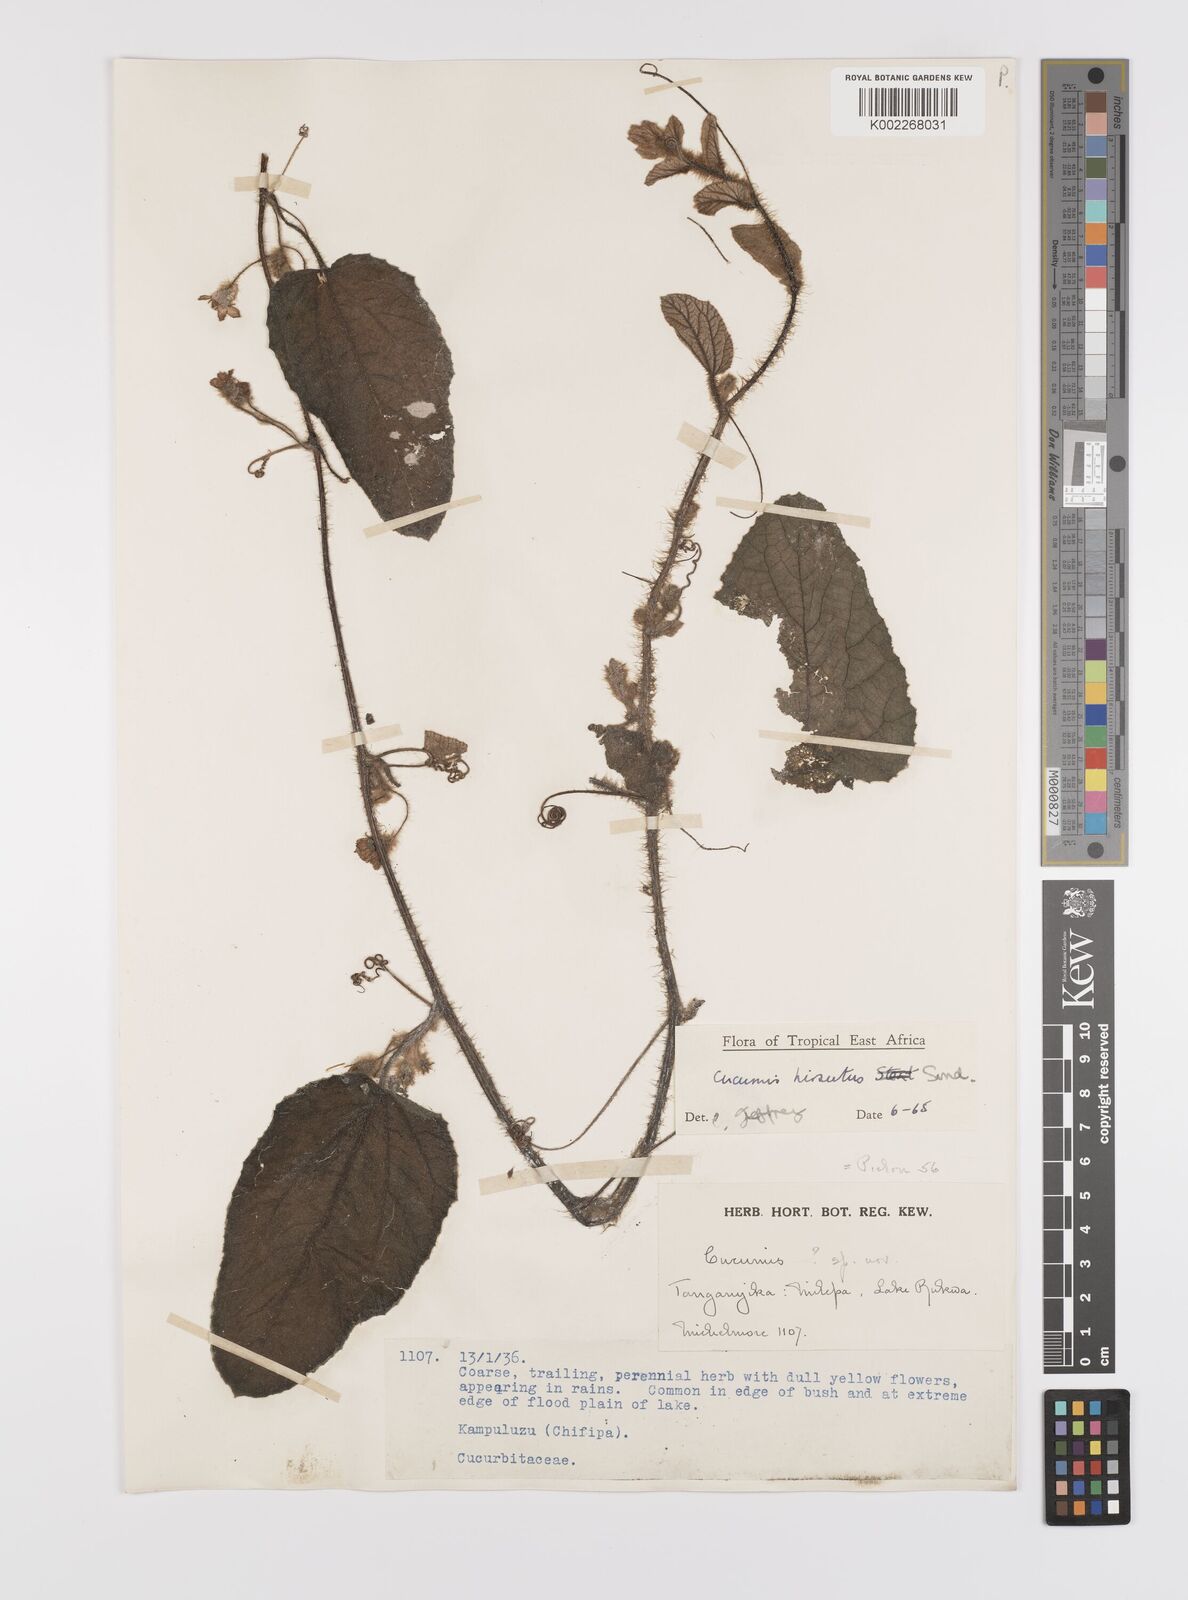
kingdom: Plantae
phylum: Tracheophyta
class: Magnoliopsida
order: Cucurbitales
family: Cucurbitaceae
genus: Cucumis
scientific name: Cucumis hirsutus
